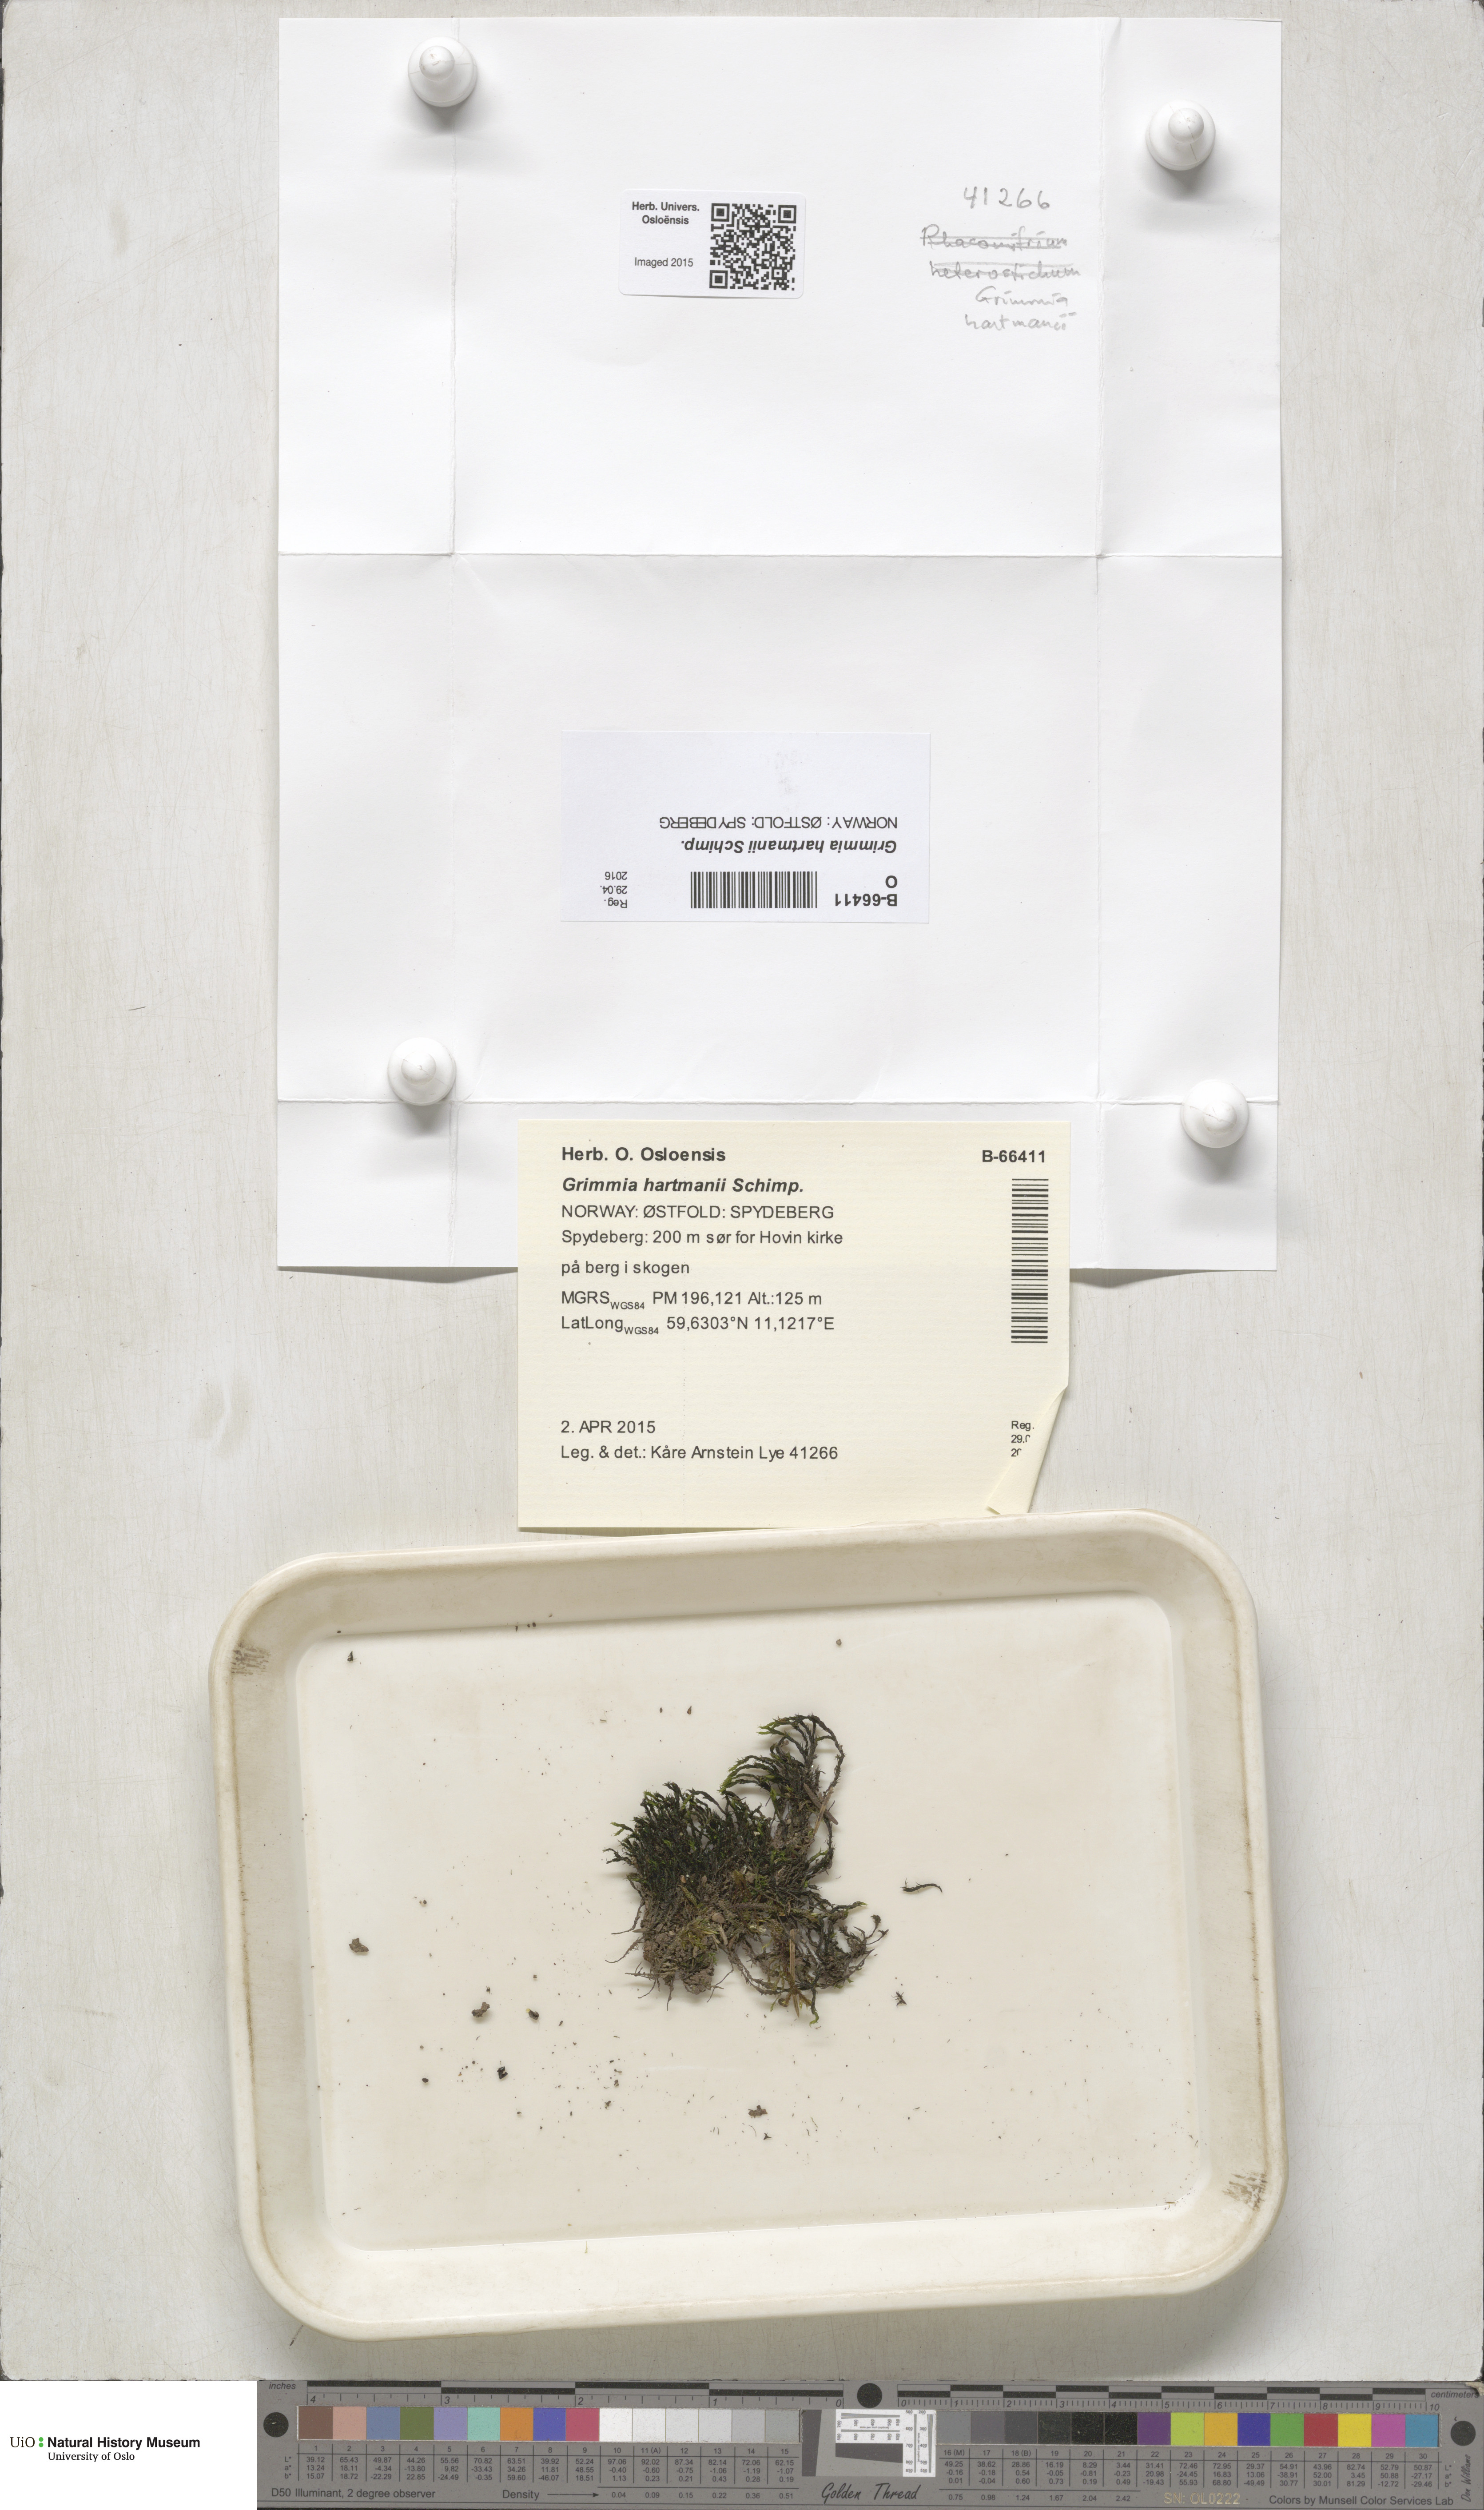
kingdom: Plantae
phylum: Bryophyta
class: Bryopsida
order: Grimmiales
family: Grimmiaceae
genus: Grimmia
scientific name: Grimmia hartmanii
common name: Hartman's grimmia
